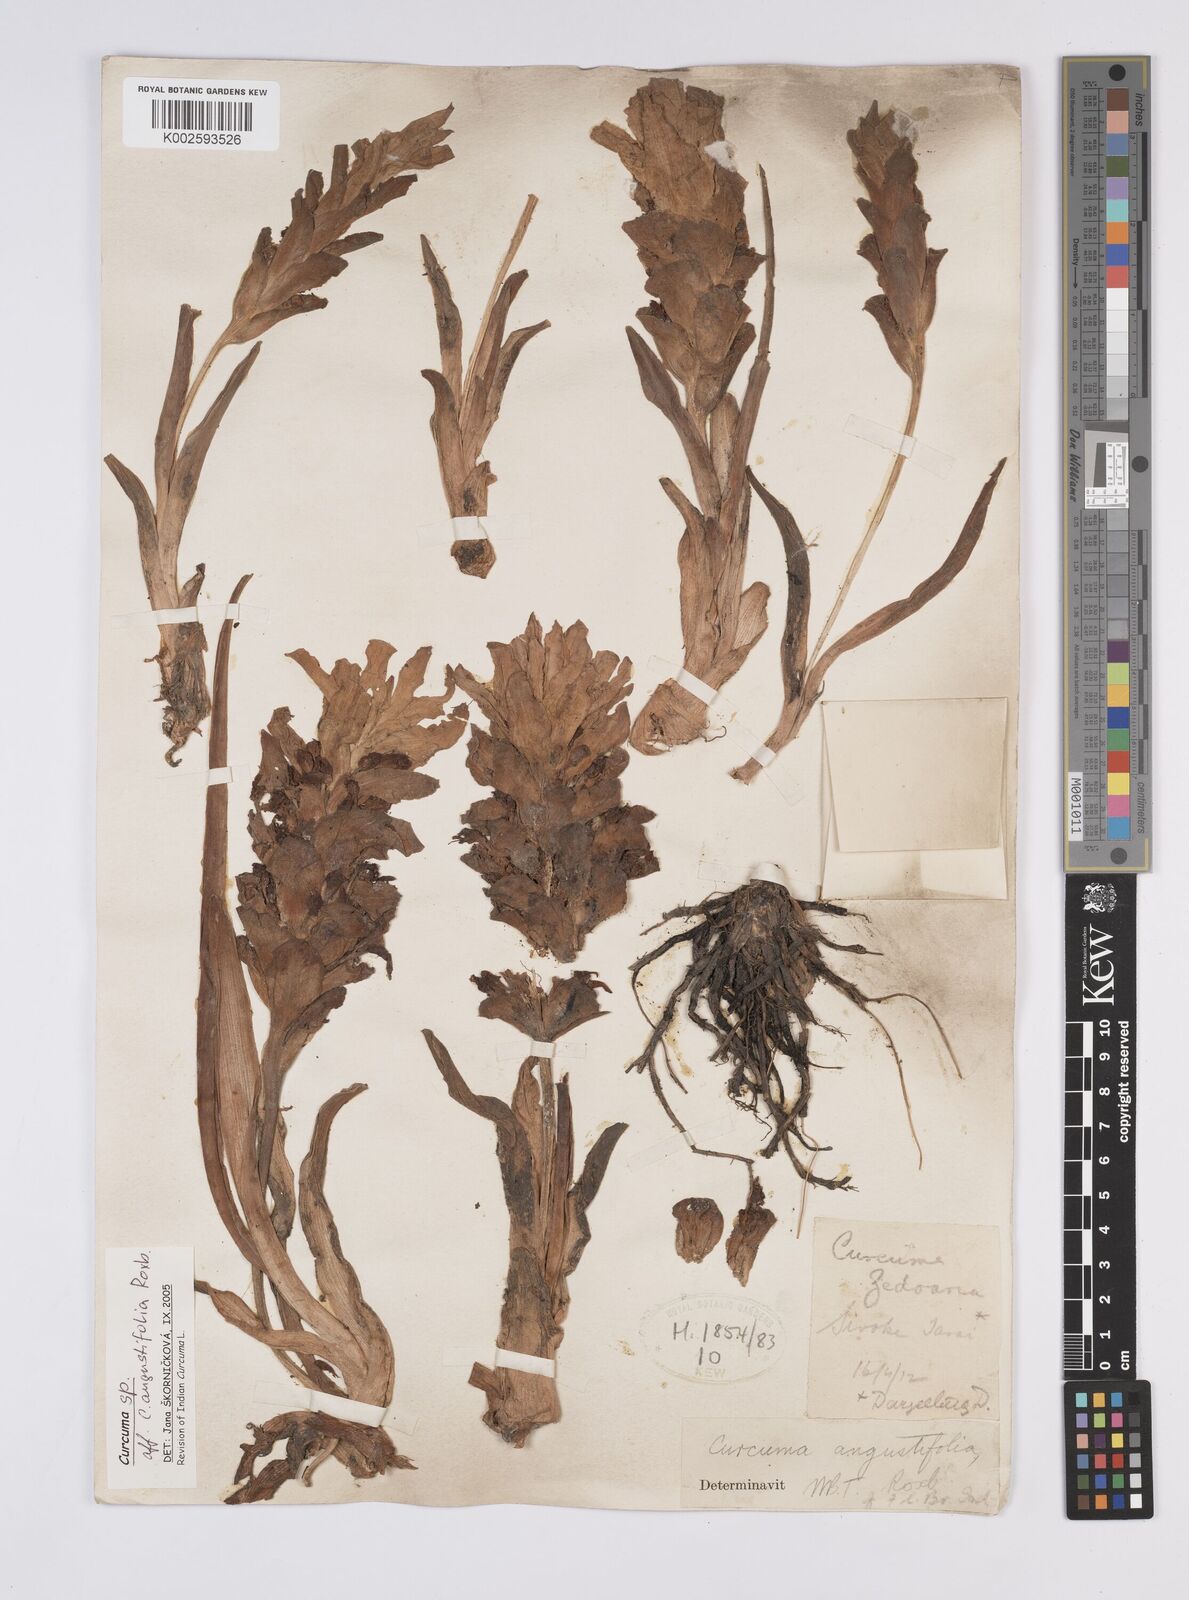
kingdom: Plantae
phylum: Tracheophyta
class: Liliopsida
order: Zingiberales
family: Zingiberaceae
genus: Curcuma
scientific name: Curcuma angustifolia
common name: East indian arrowroot
